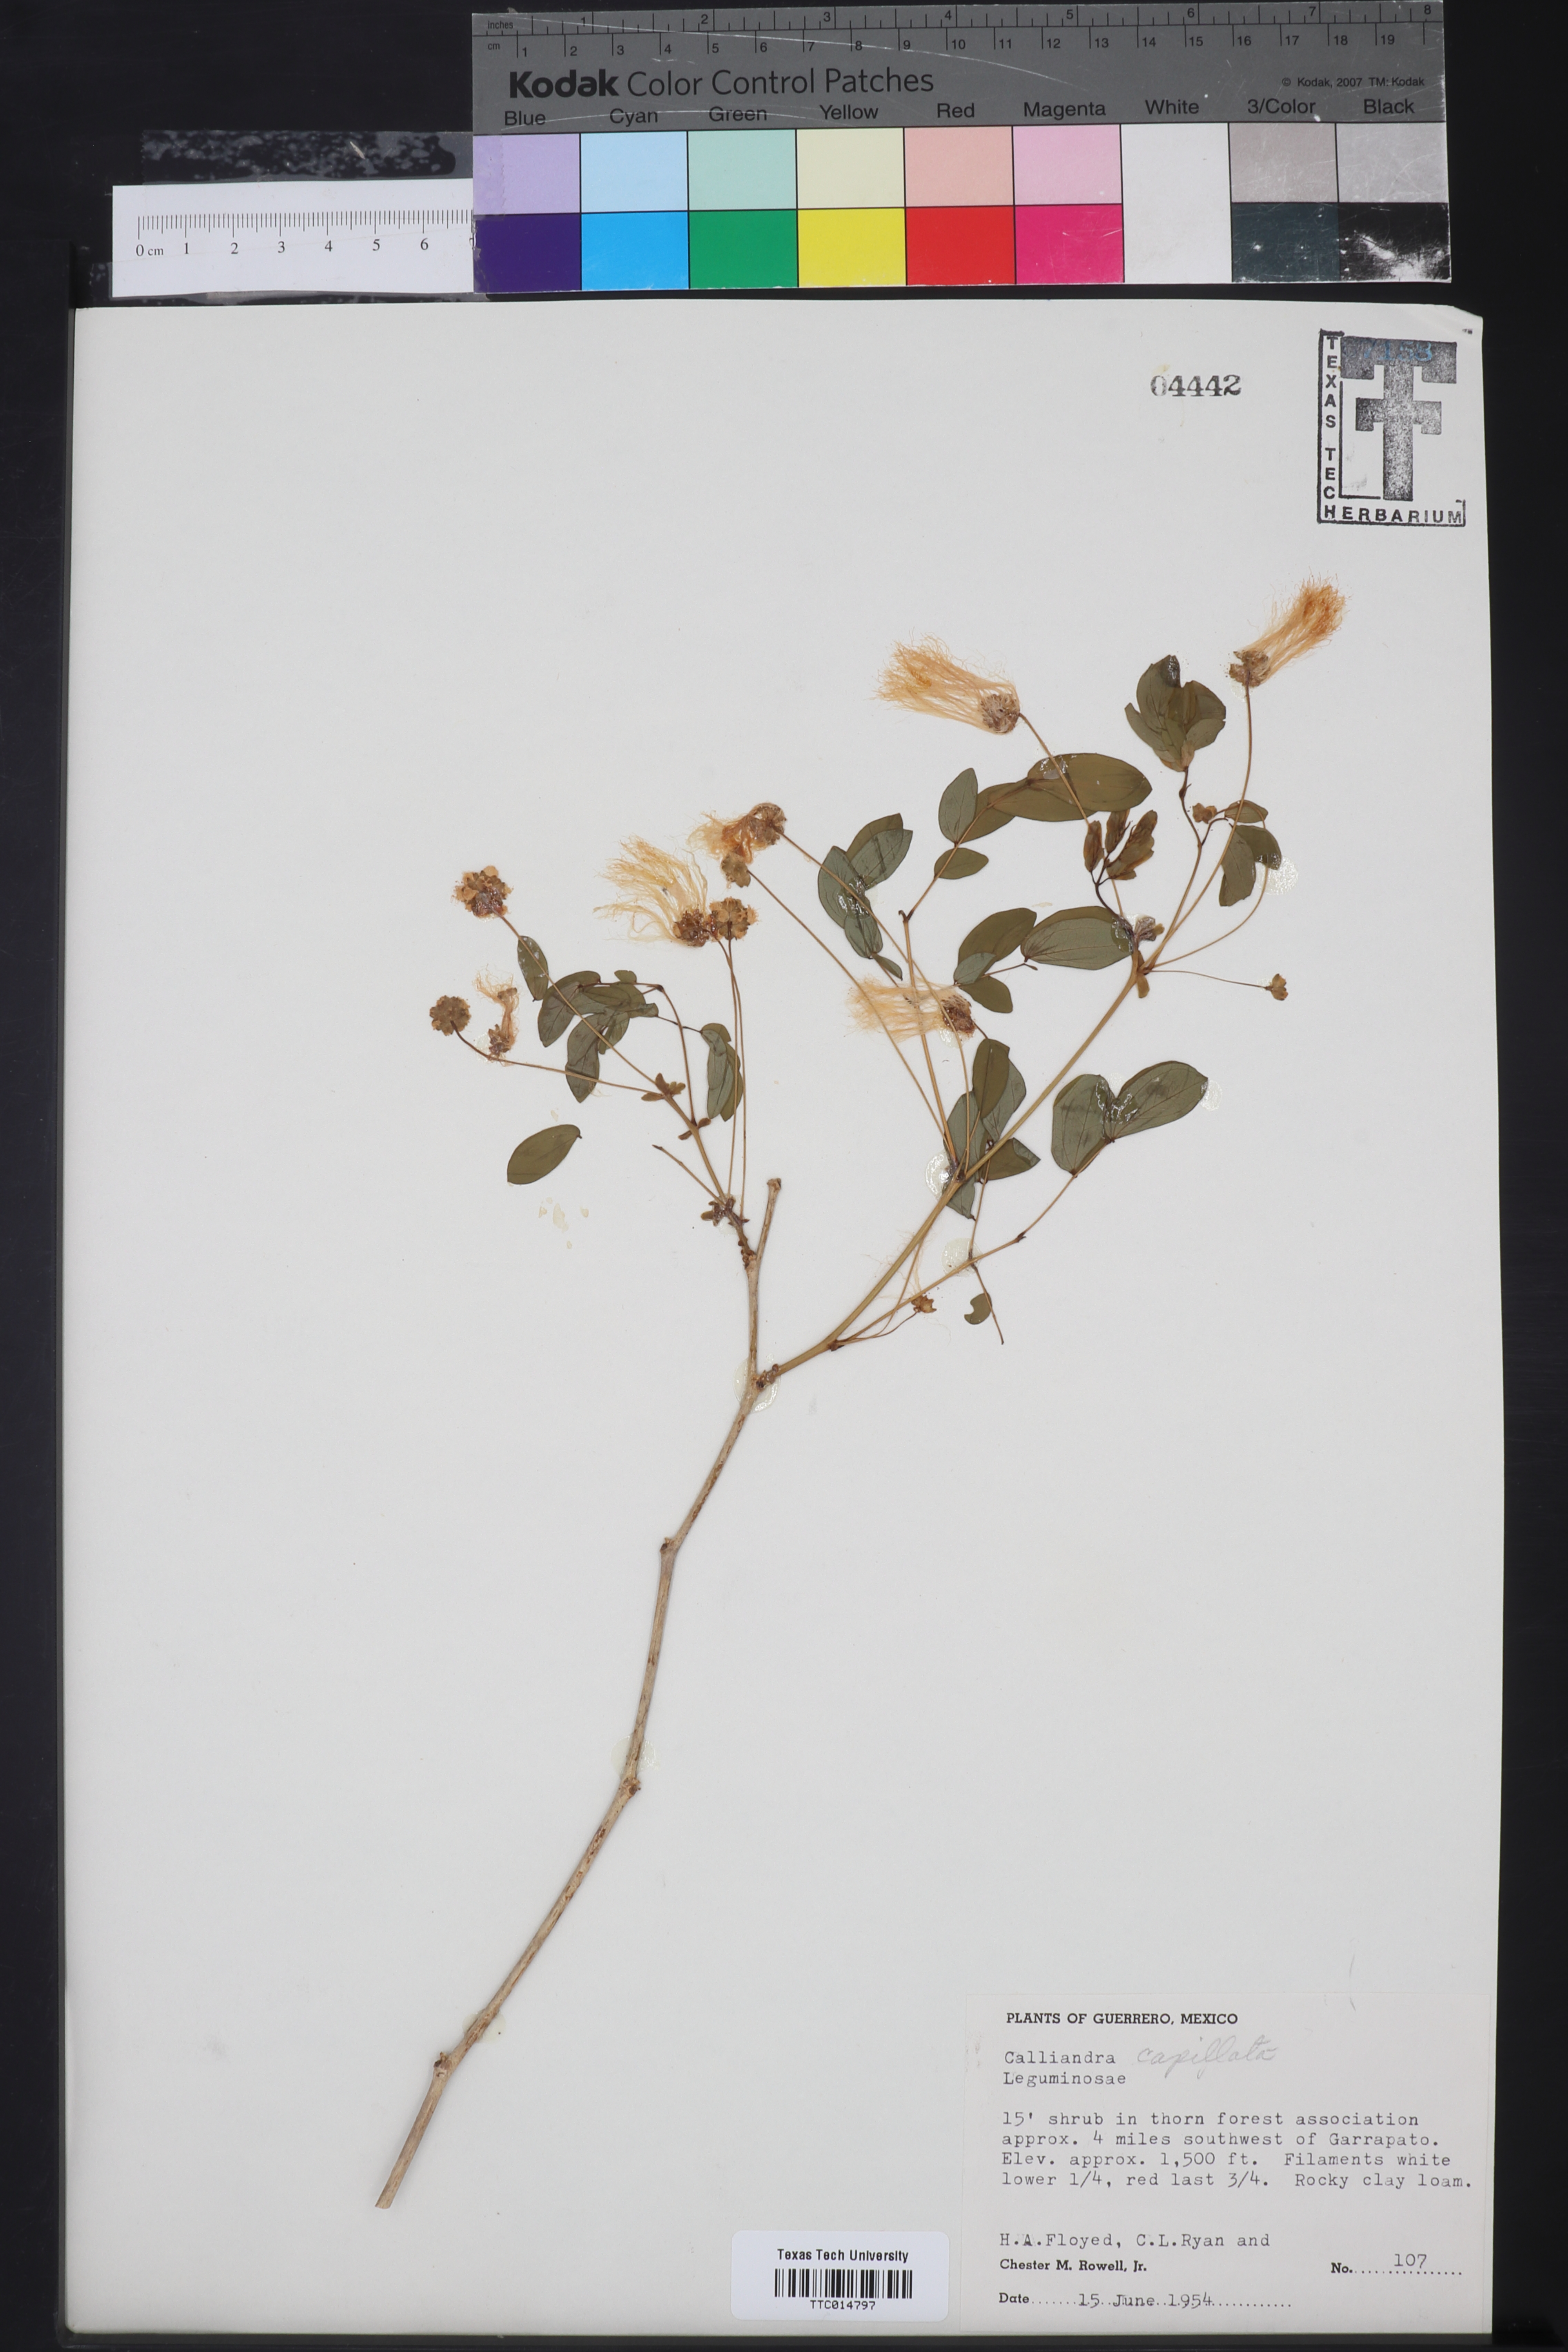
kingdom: Plantae
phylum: Tracheophyta
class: Magnoliopsida
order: Fabales
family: Fabaceae
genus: Zapoteca
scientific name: Zapoteca formosa
